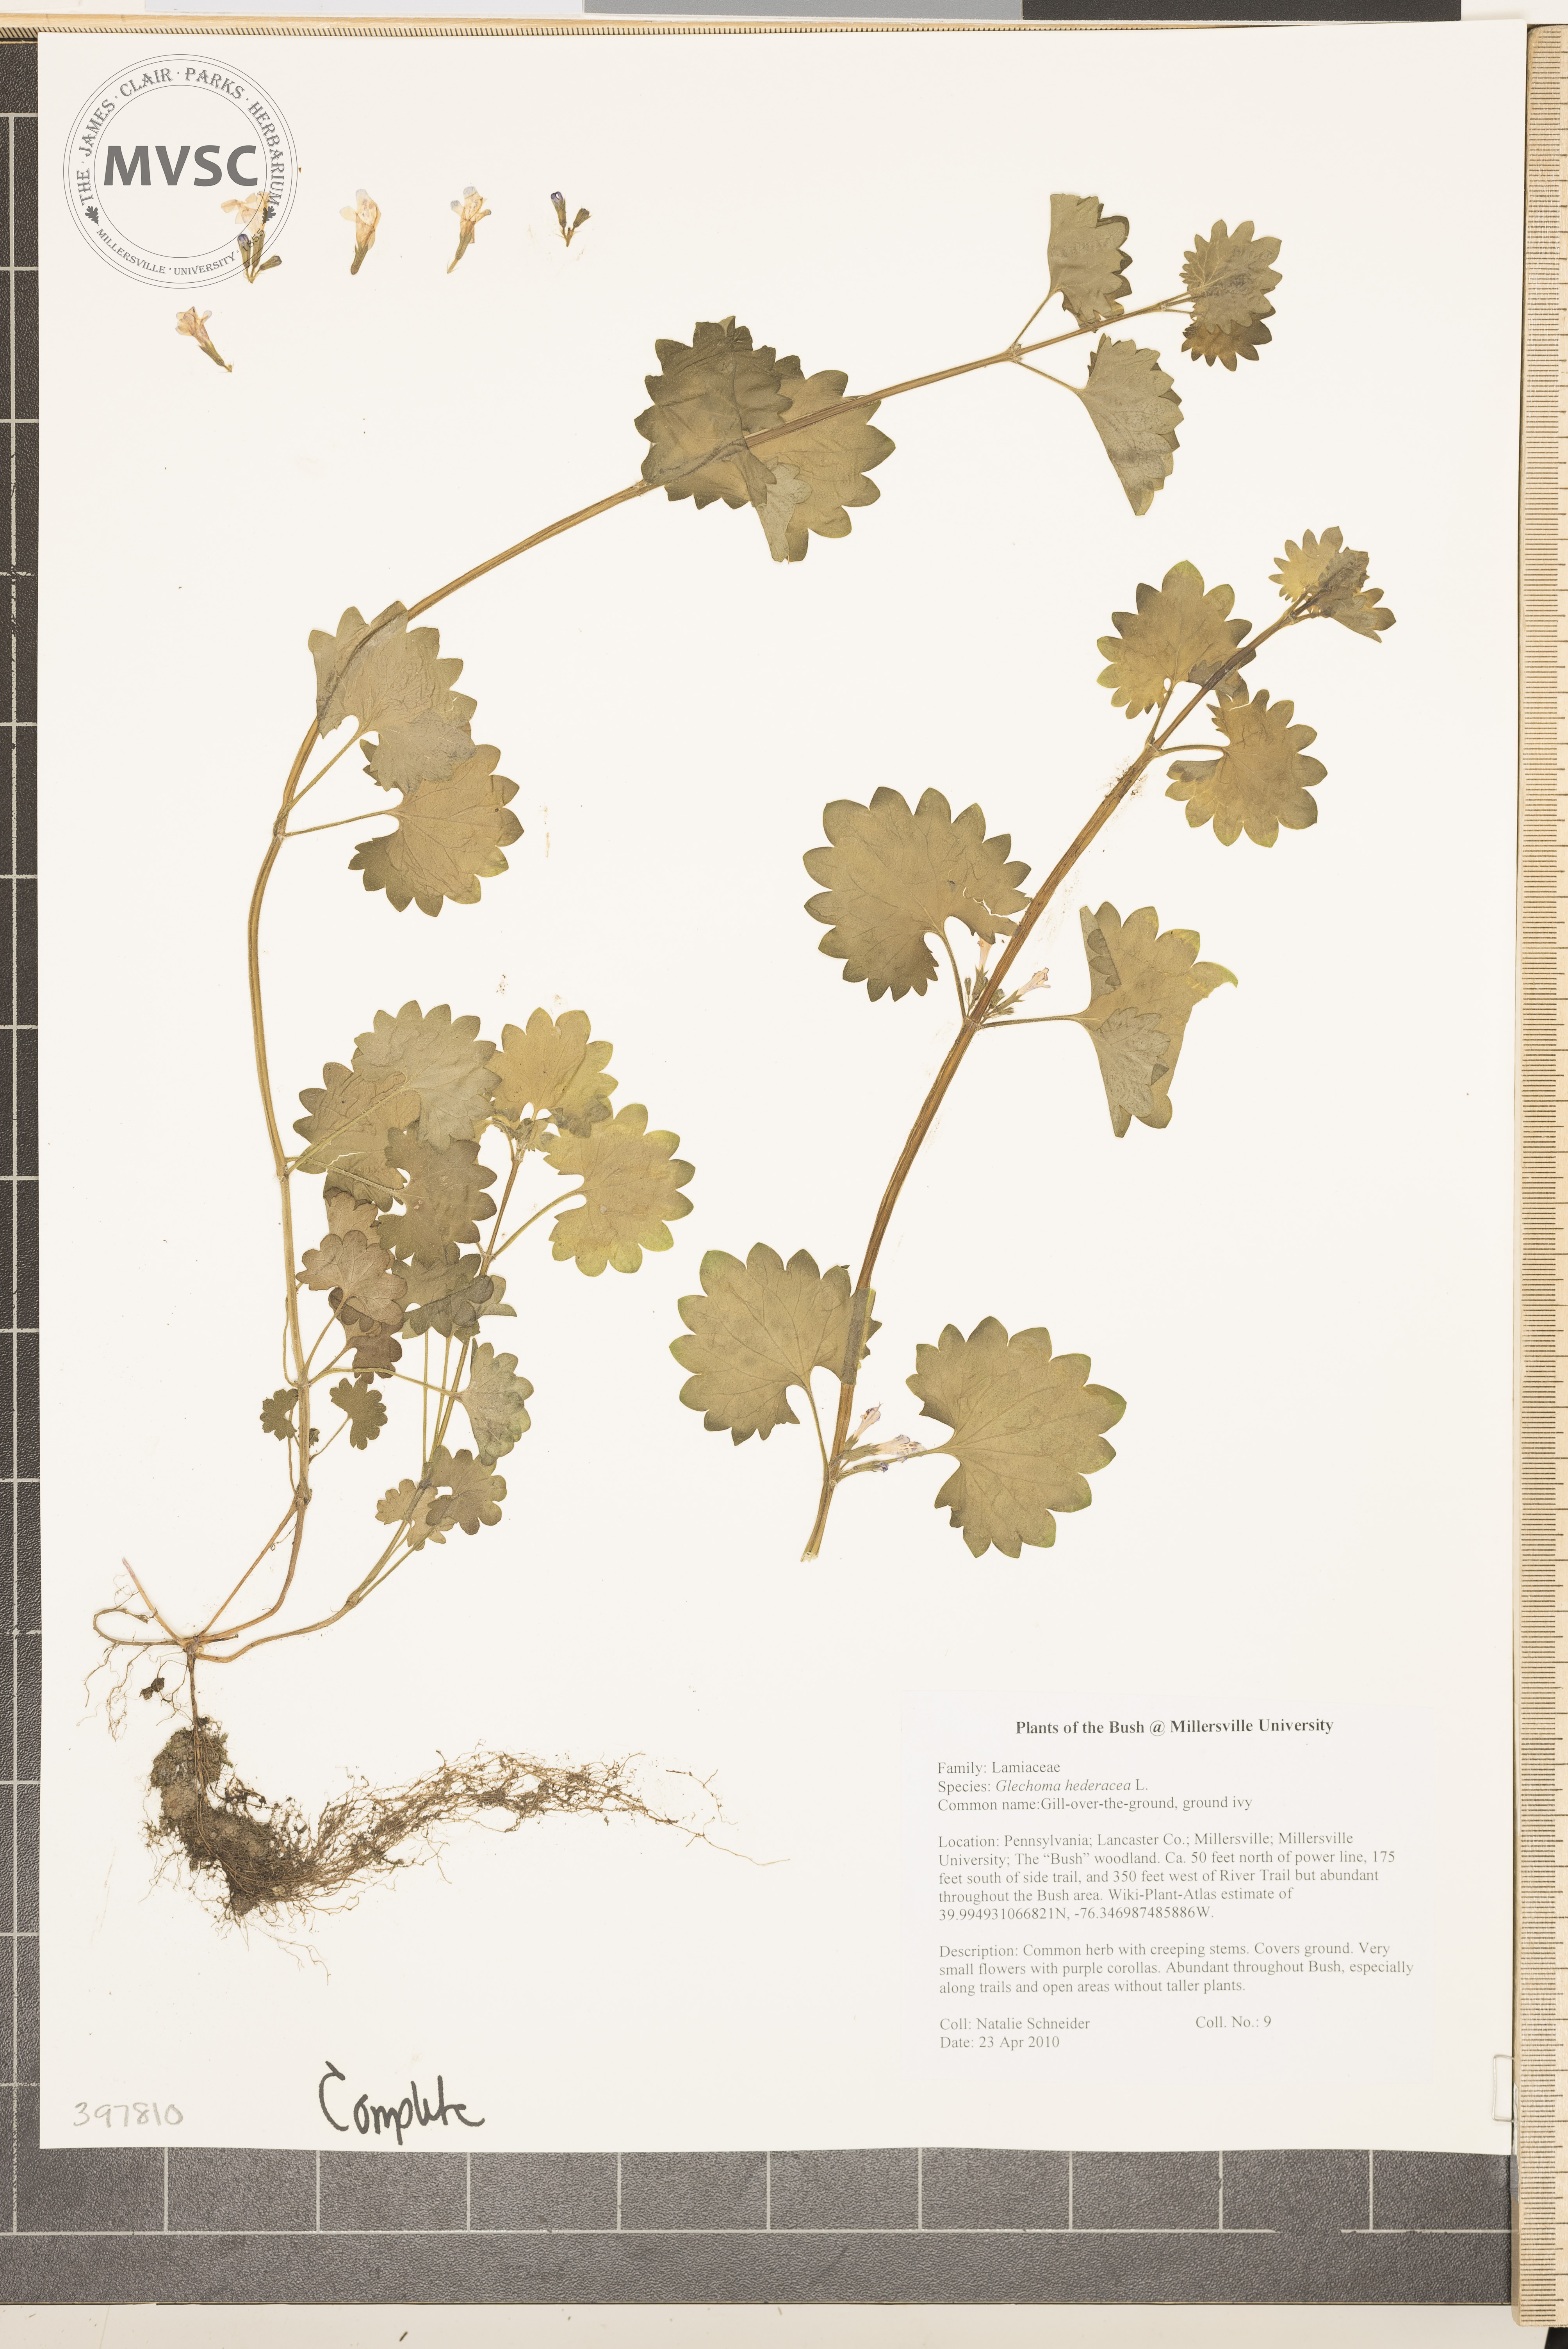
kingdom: Plantae
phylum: Tracheophyta
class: Magnoliopsida
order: Lamiales
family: Lamiaceae
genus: Glechoma
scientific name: Glechoma hederacea
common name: Gill-over-the-ground
